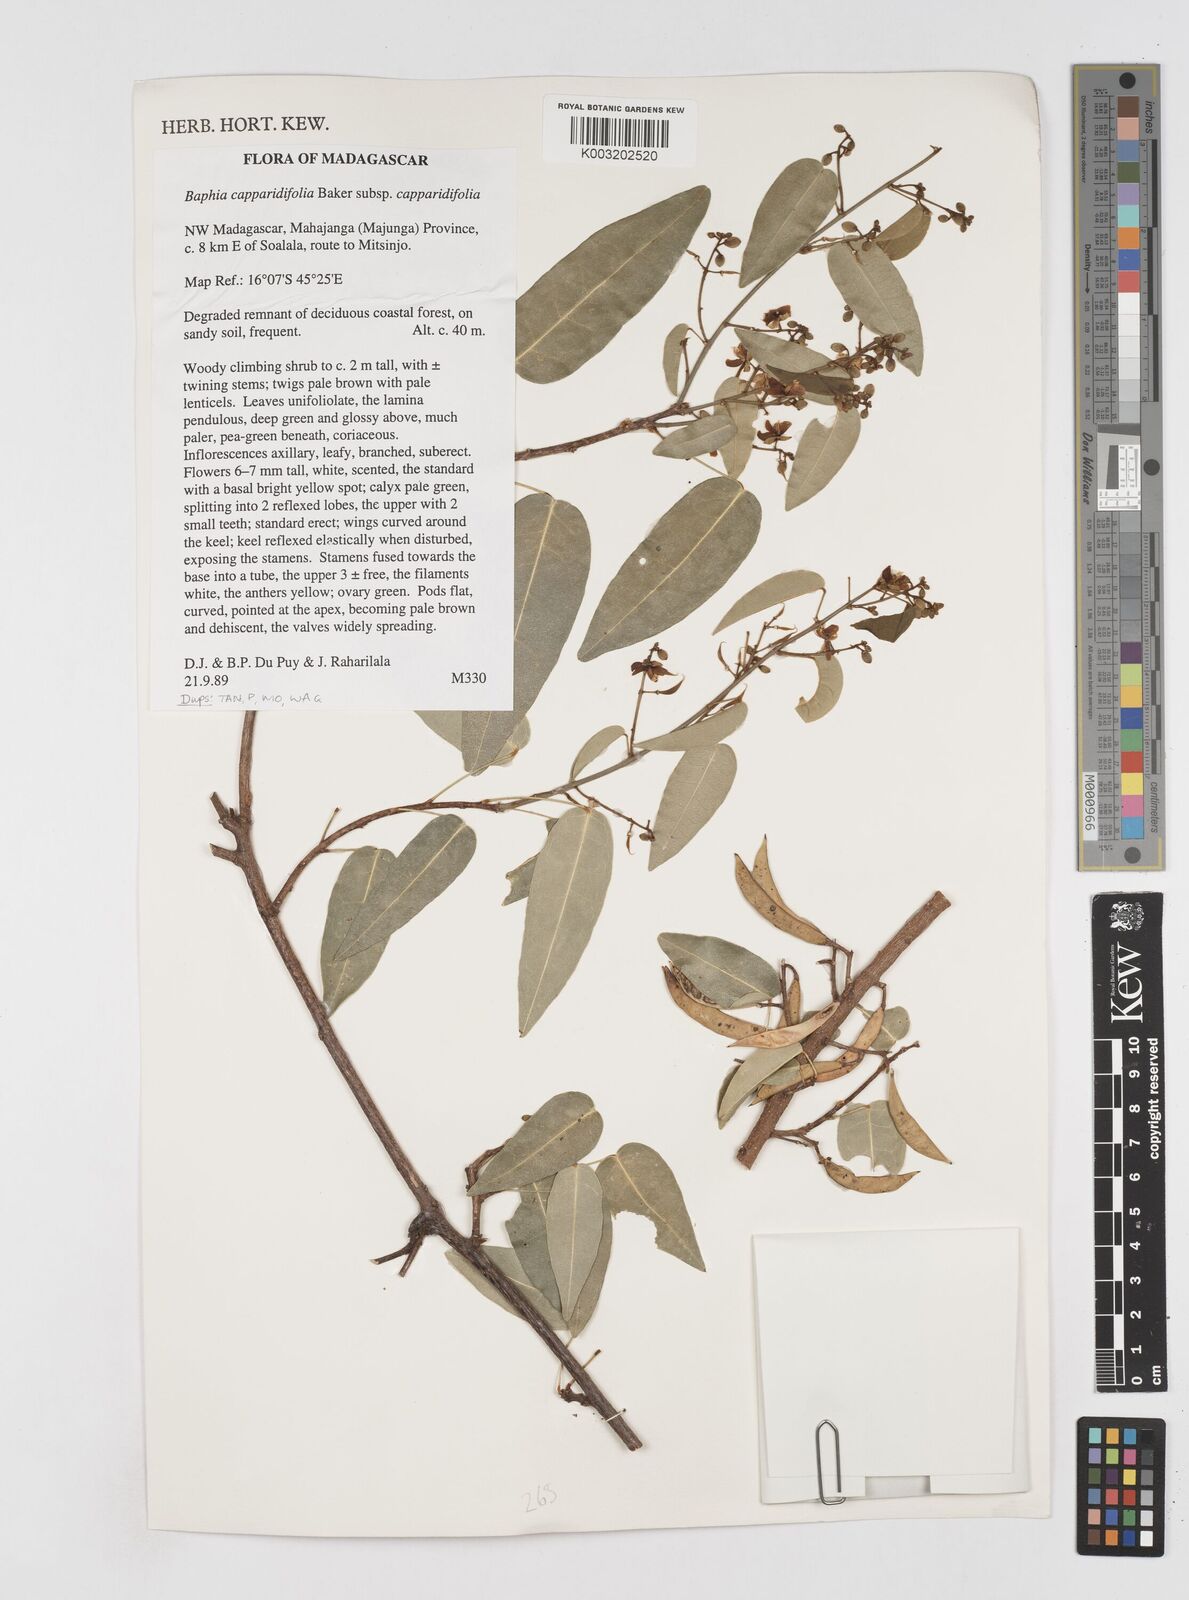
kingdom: Plantae
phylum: Tracheophyta
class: Magnoliopsida
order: Fabales
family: Fabaceae
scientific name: Fabaceae
